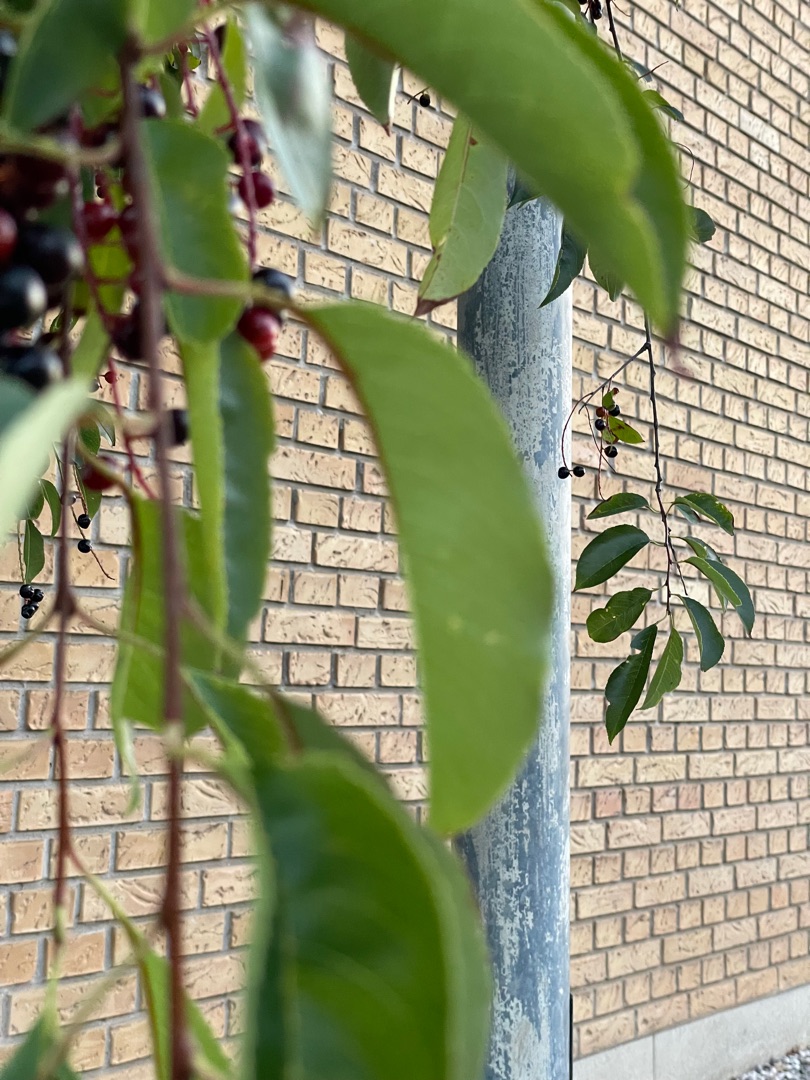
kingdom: Plantae
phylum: Tracheophyta
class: Magnoliopsida
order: Rosales
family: Rosaceae
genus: Prunus
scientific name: Prunus serotina
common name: Glansbladet hæg
